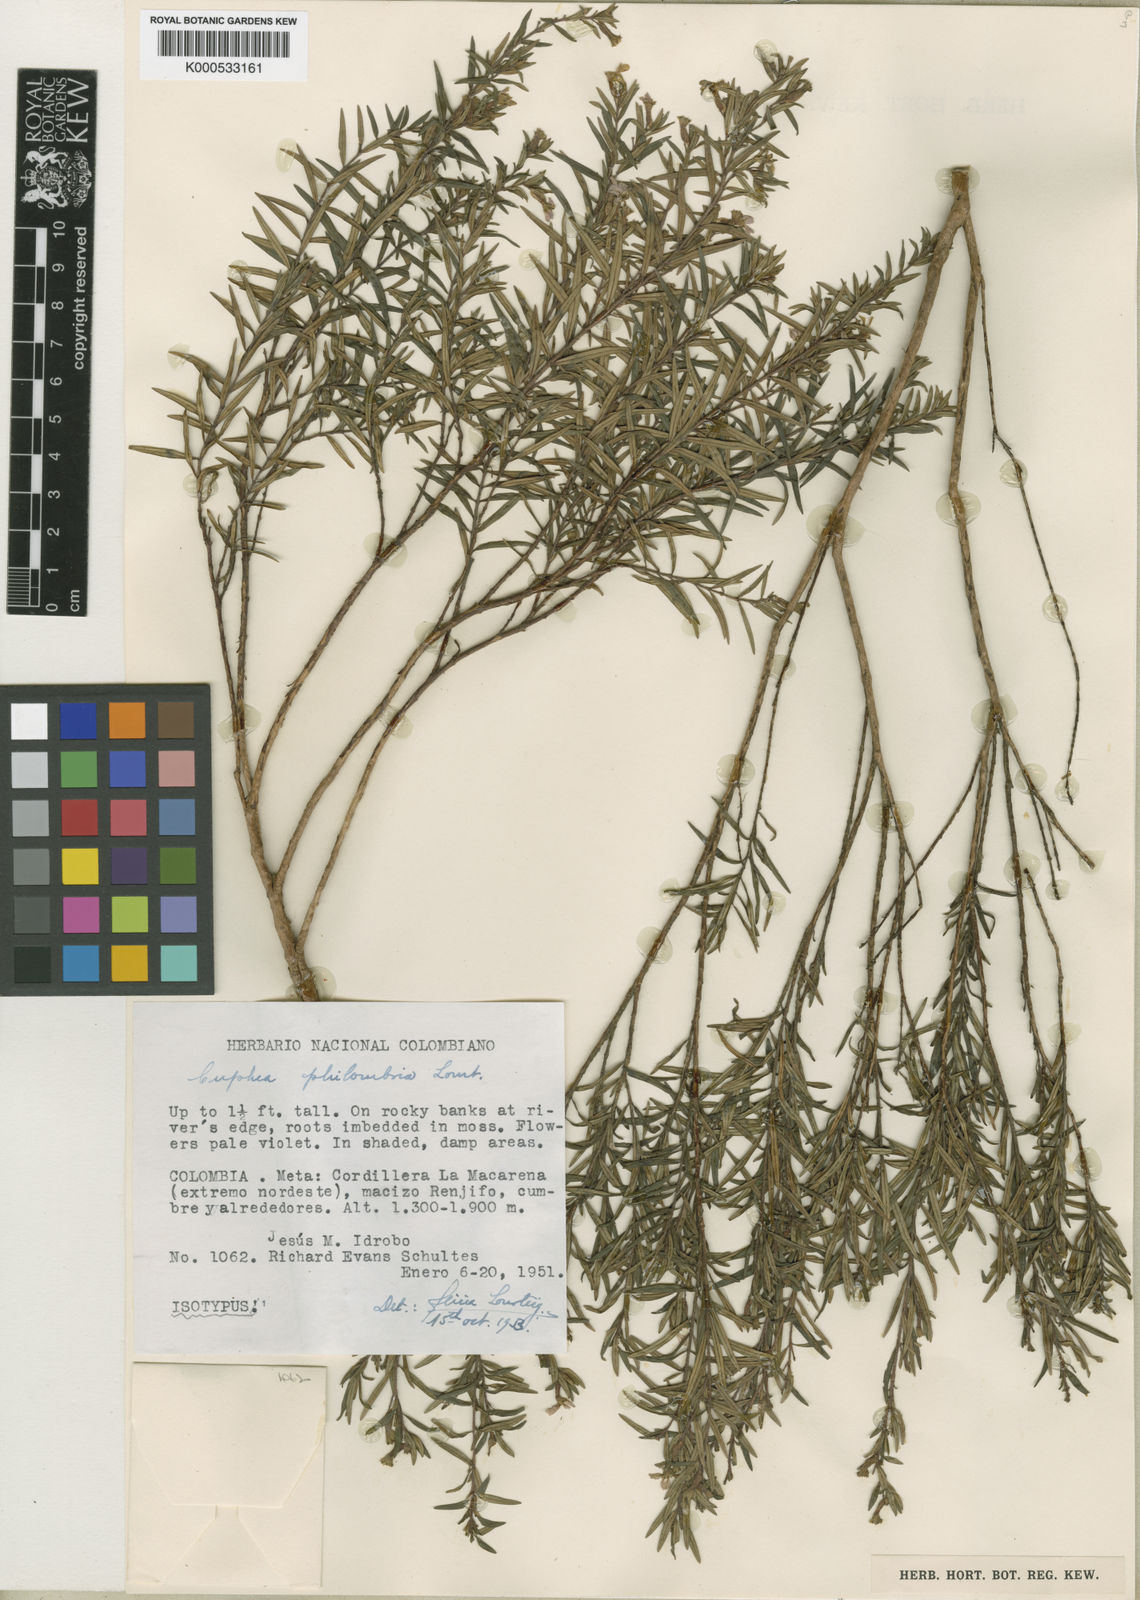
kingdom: Plantae
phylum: Tracheophyta
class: Magnoliopsida
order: Myrtales
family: Lythraceae
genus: Cuphea
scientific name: Cuphea philombria
